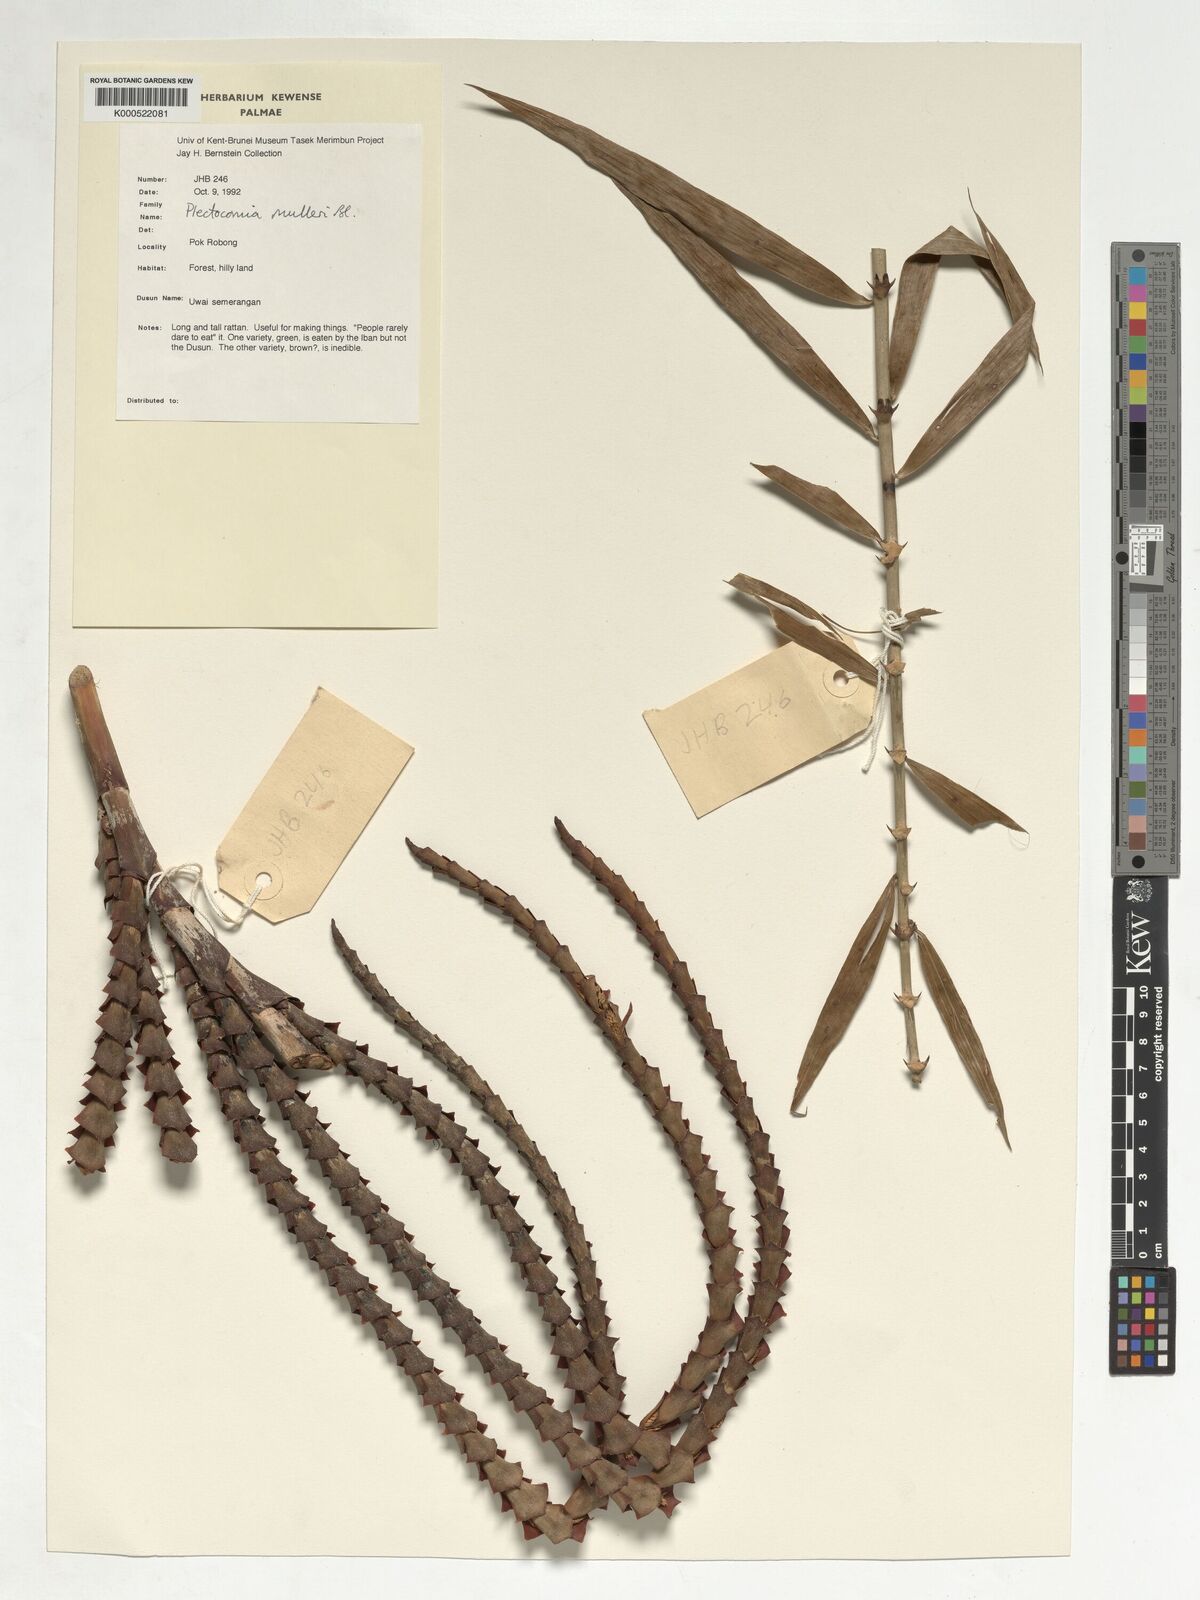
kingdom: Plantae
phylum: Tracheophyta
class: Liliopsida
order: Arecales
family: Arecaceae
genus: Plectocomia
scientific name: Plectocomia mulleri
